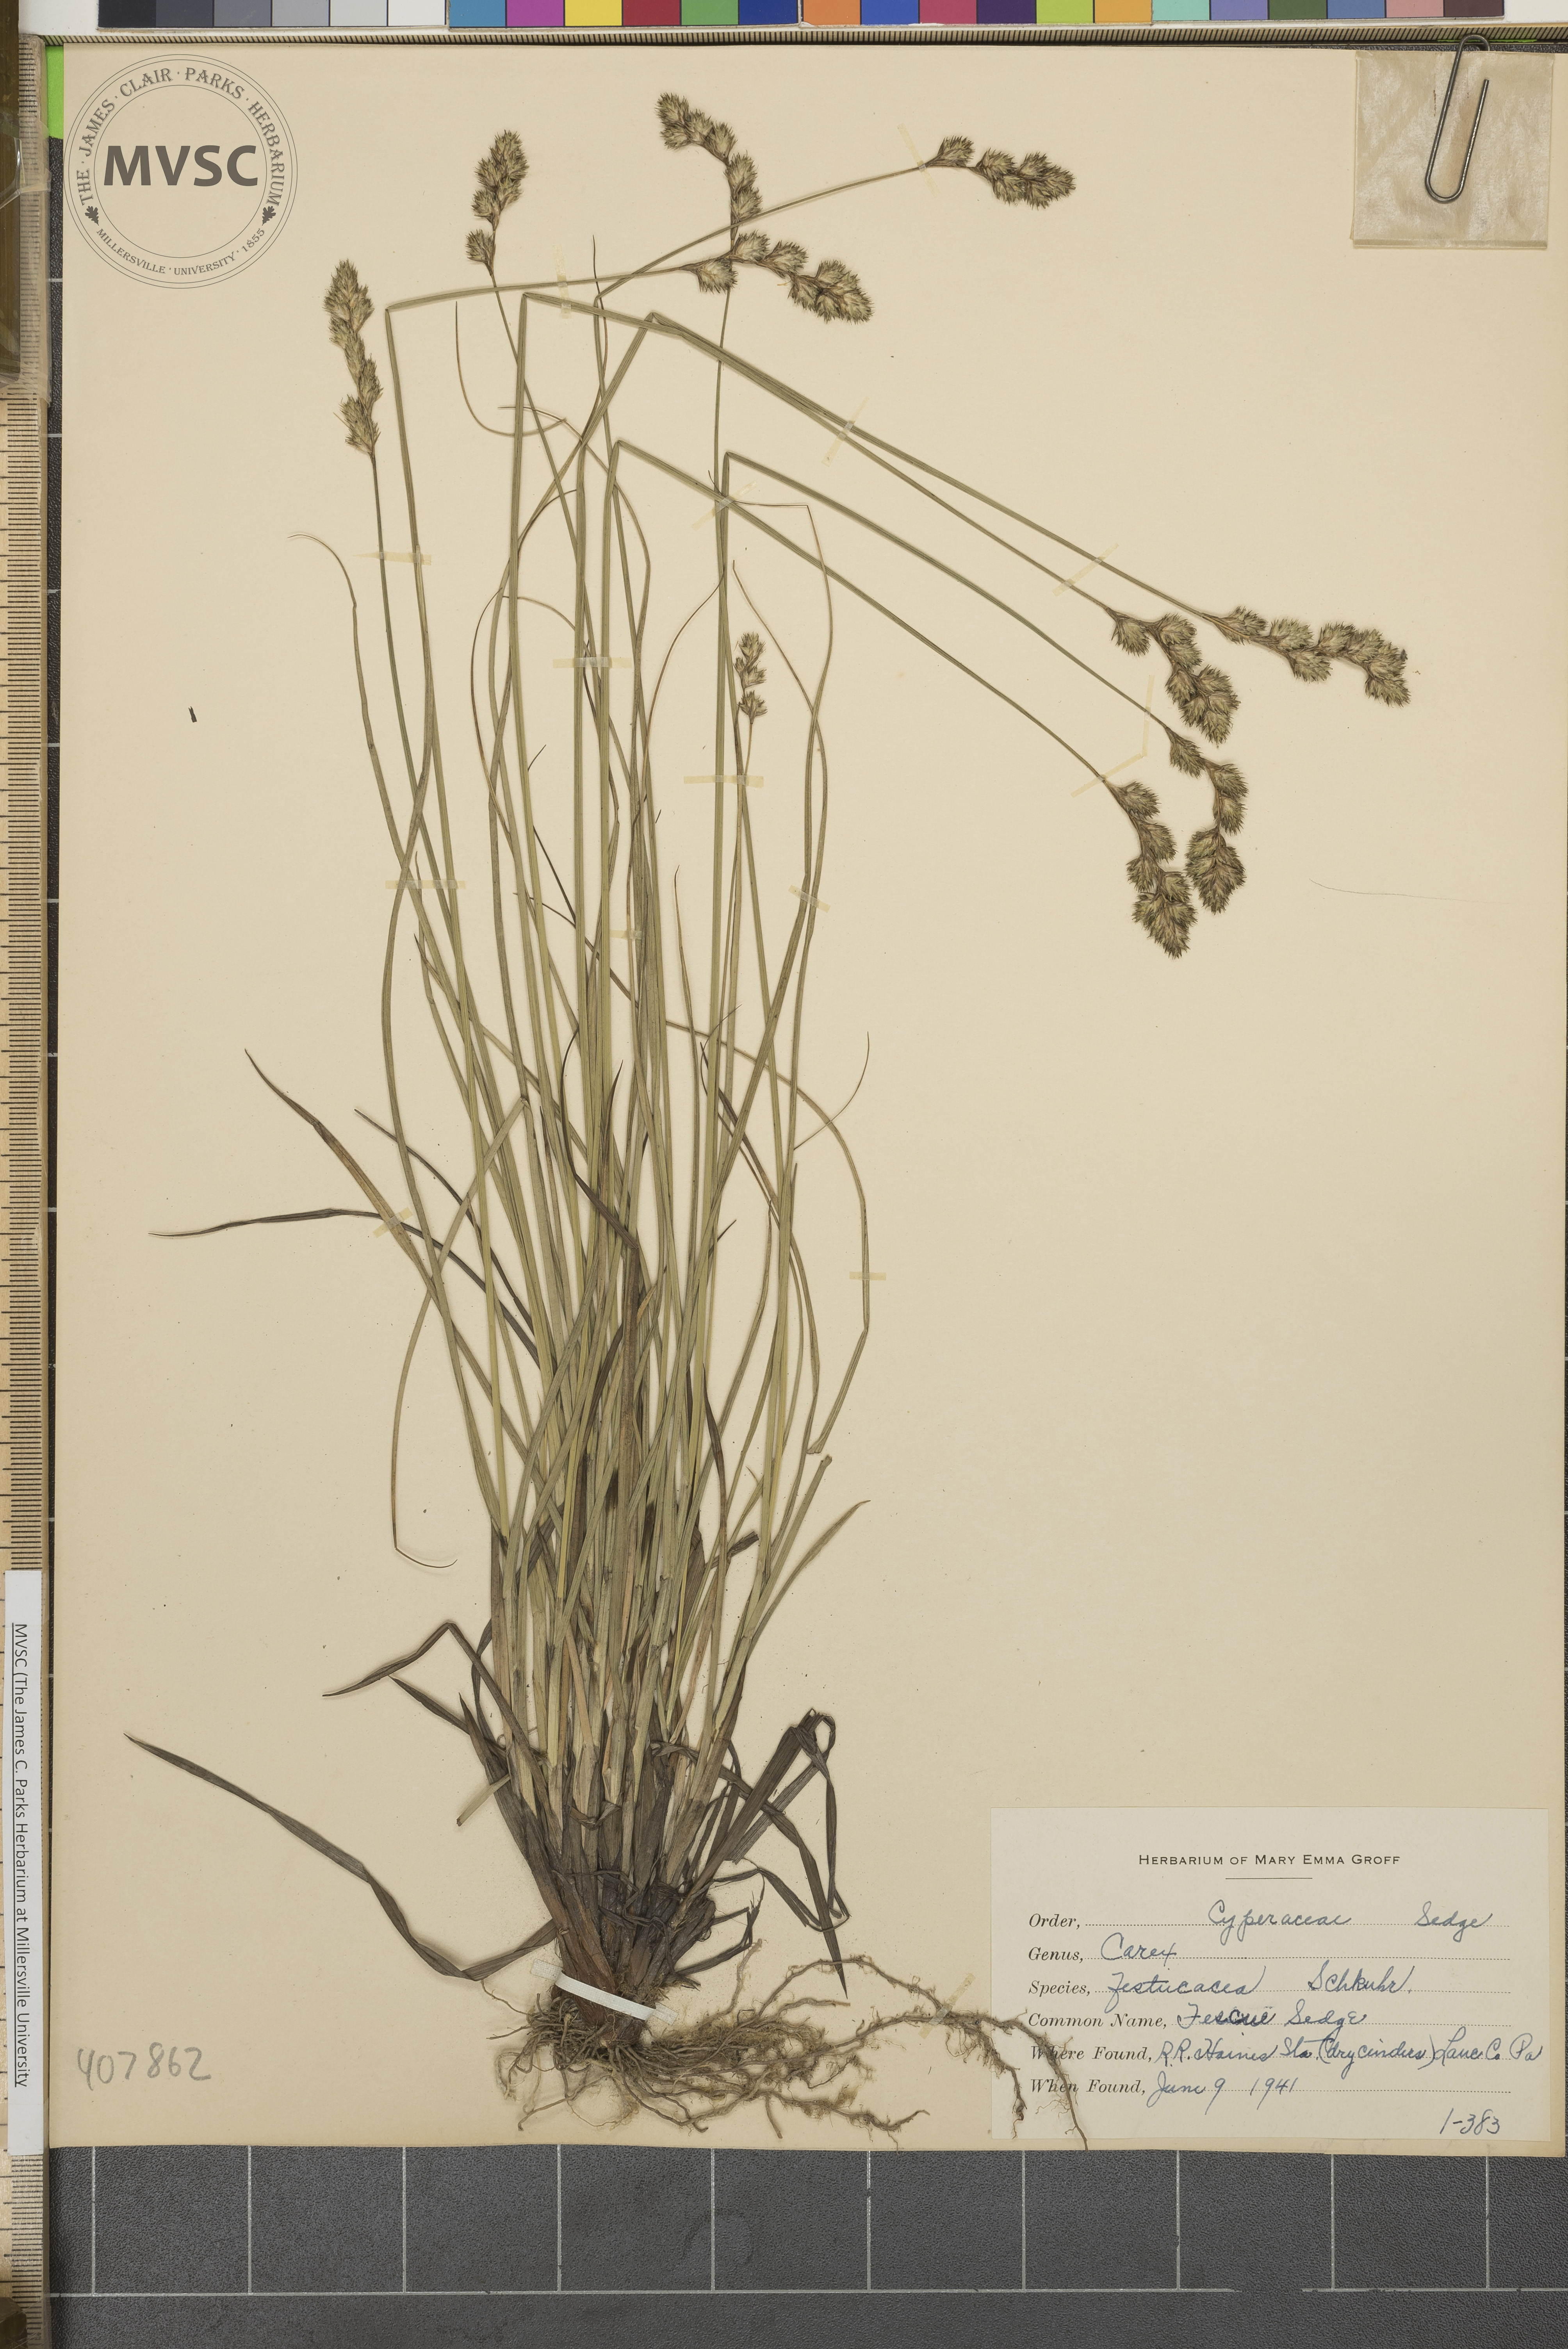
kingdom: Plantae
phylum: Tracheophyta
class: Liliopsida
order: Poales
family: Cyperaceae
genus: Carex
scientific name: Carex festucacea
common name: Fescue Sedge
